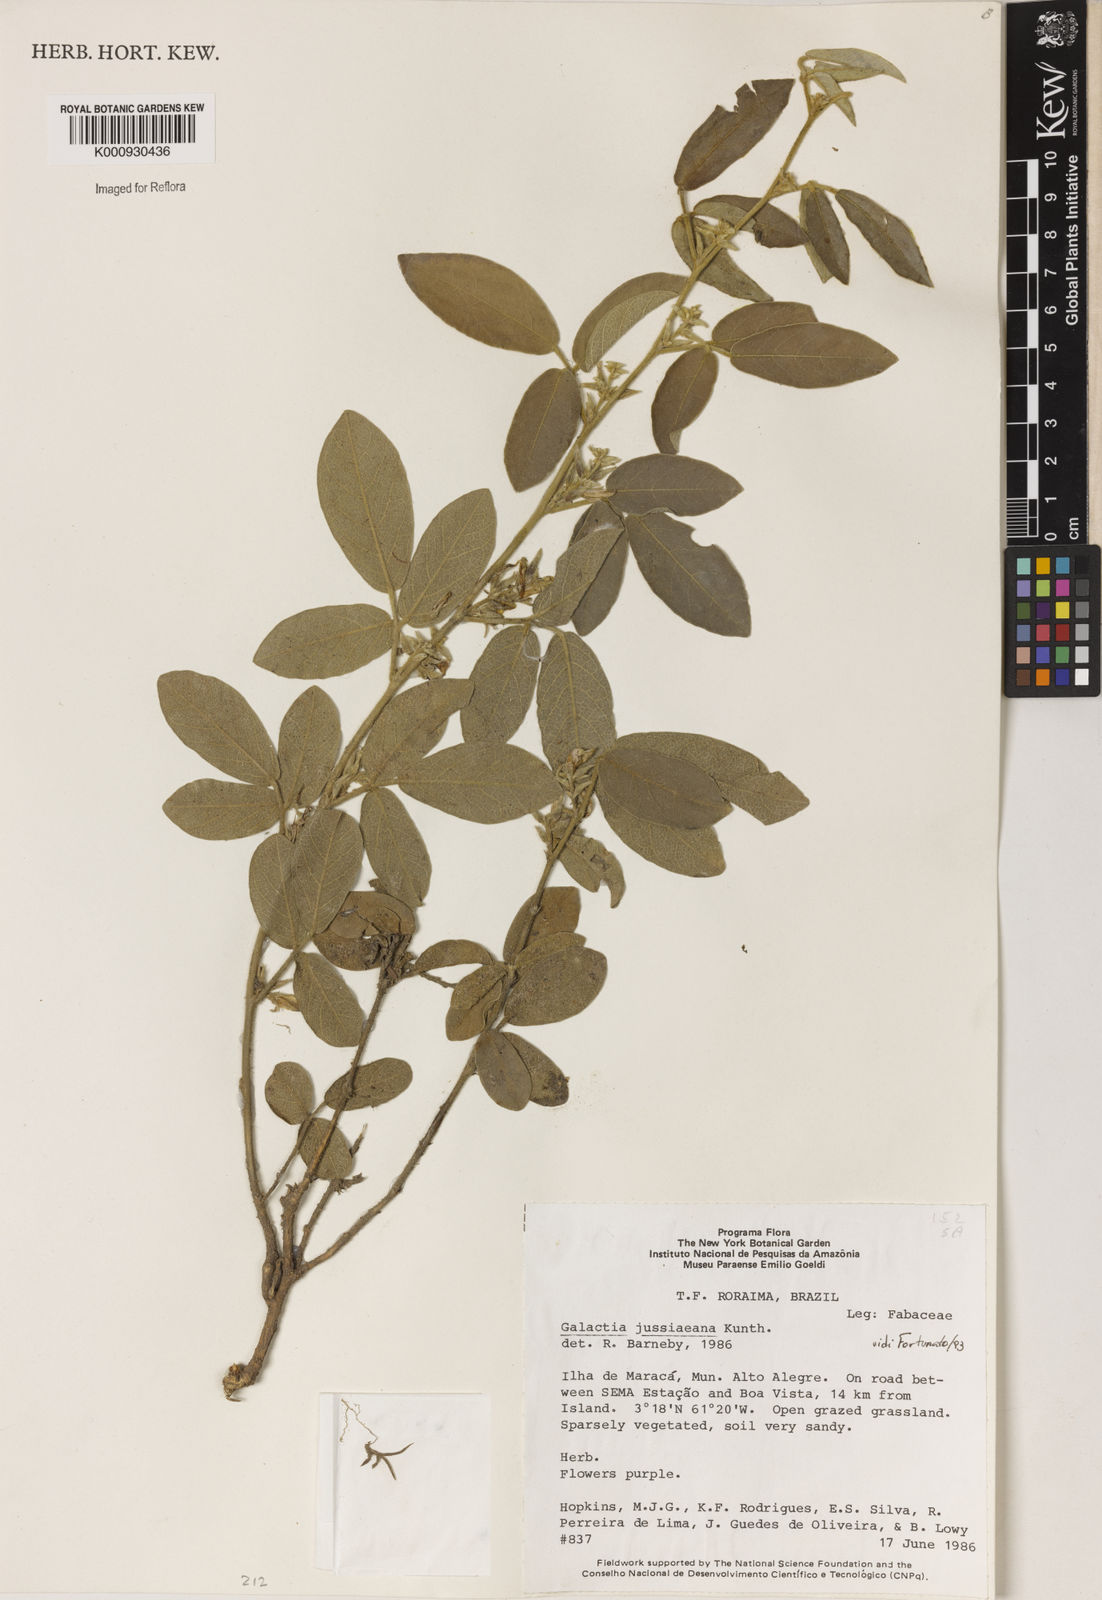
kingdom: Plantae
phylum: Tracheophyta
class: Magnoliopsida
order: Fabales
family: Fabaceae
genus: Galactia
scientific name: Galactia jussiaeana
